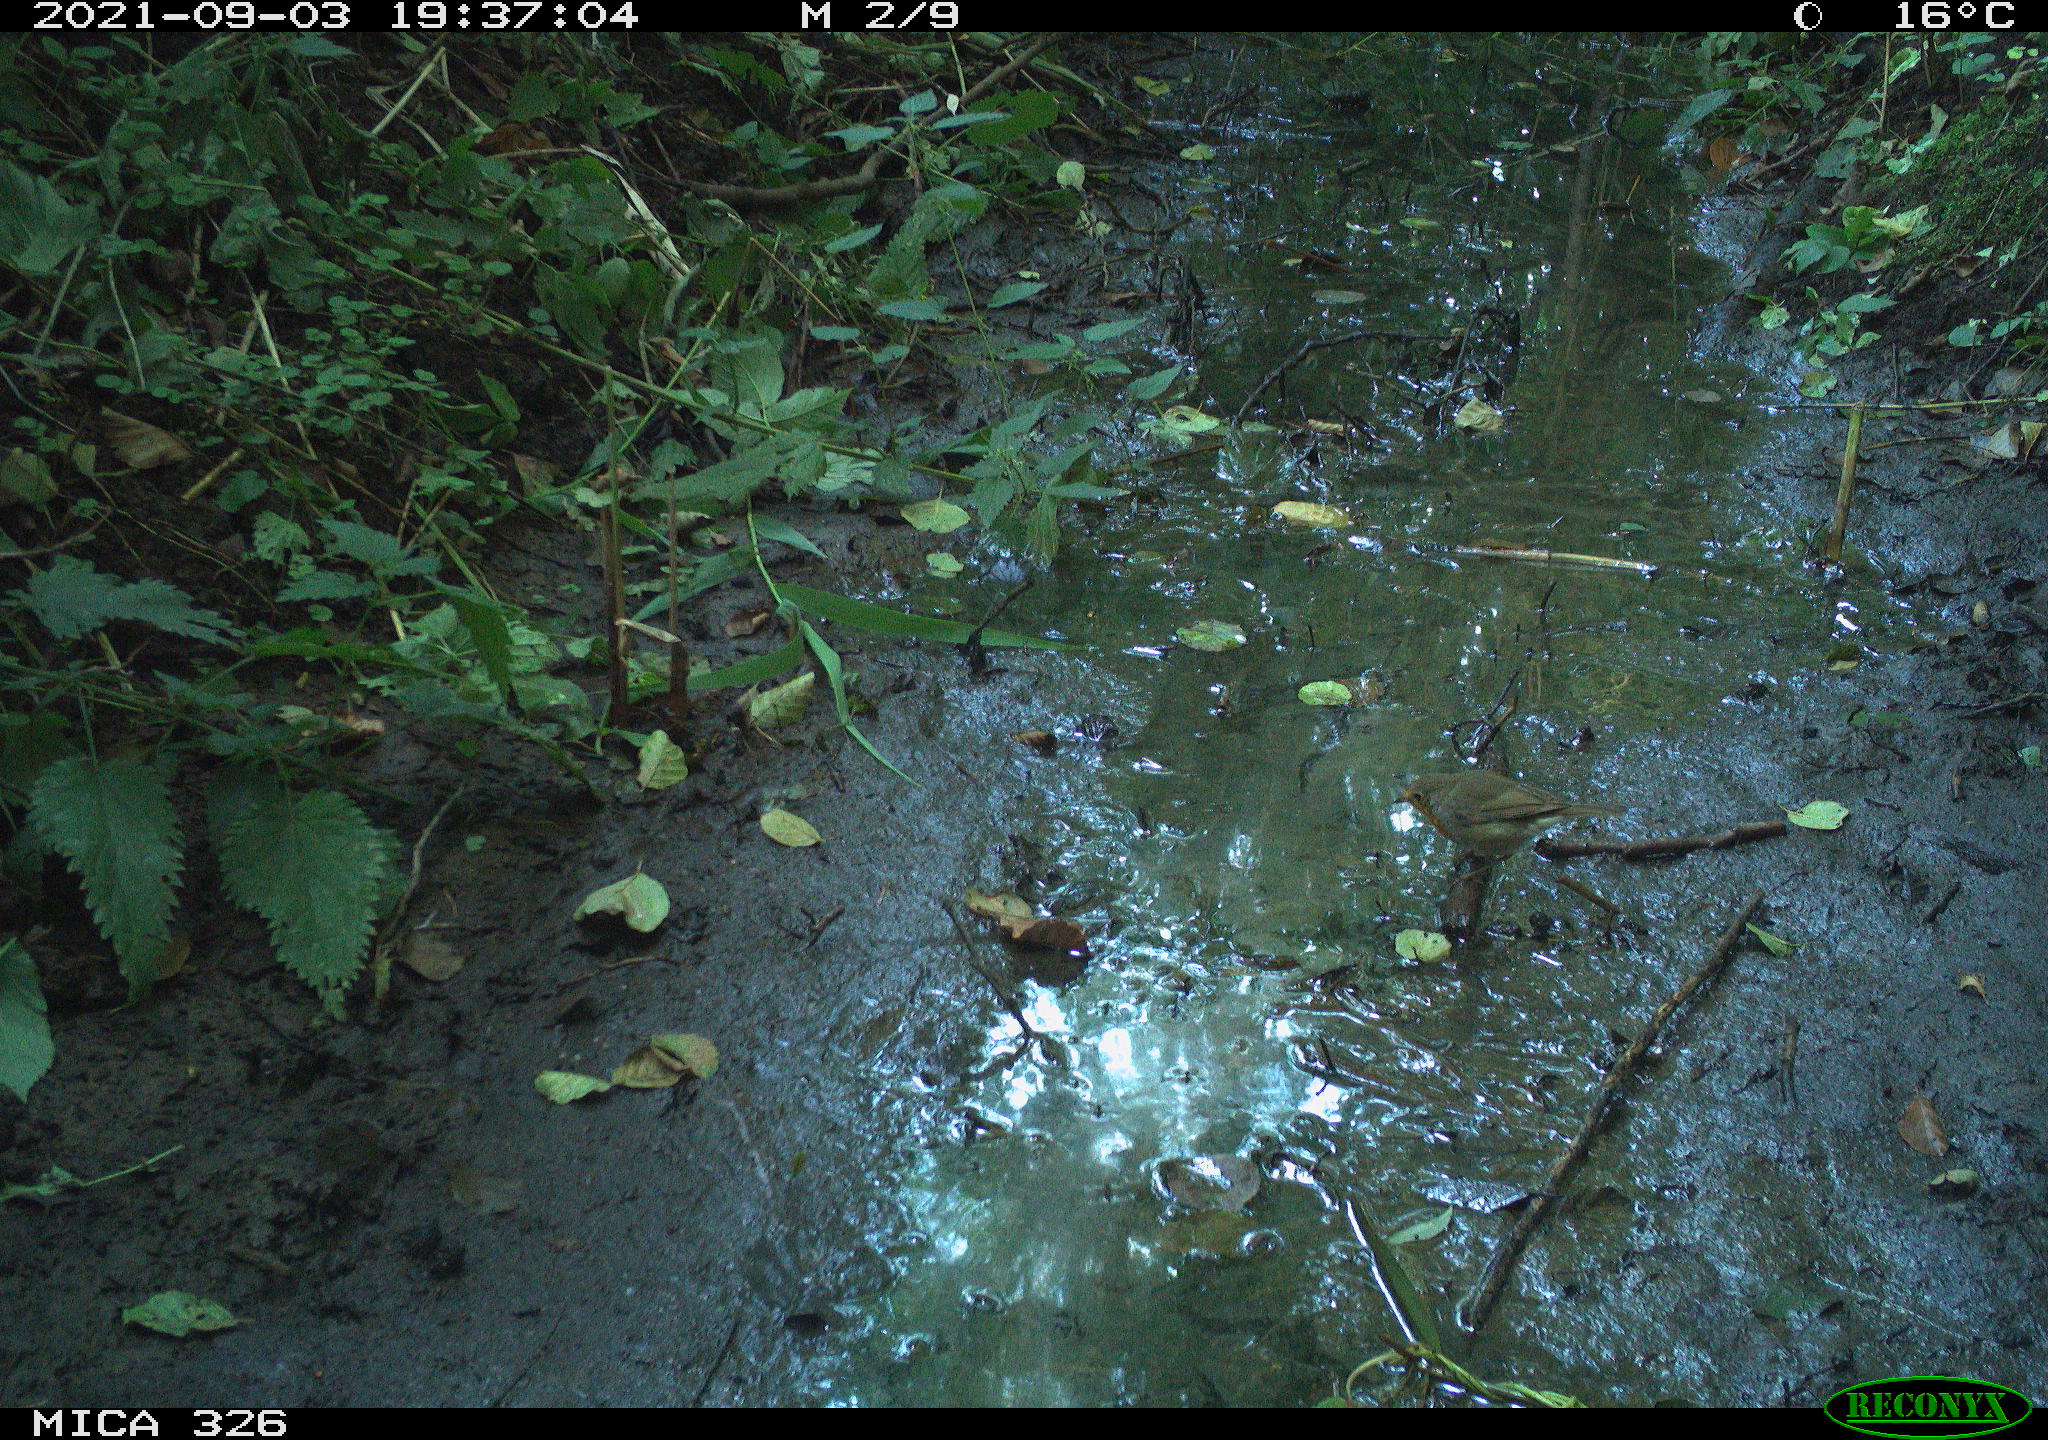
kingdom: Animalia
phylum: Chordata
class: Aves
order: Passeriformes
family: Muscicapidae
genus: Erithacus
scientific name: Erithacus rubecula
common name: European robin
